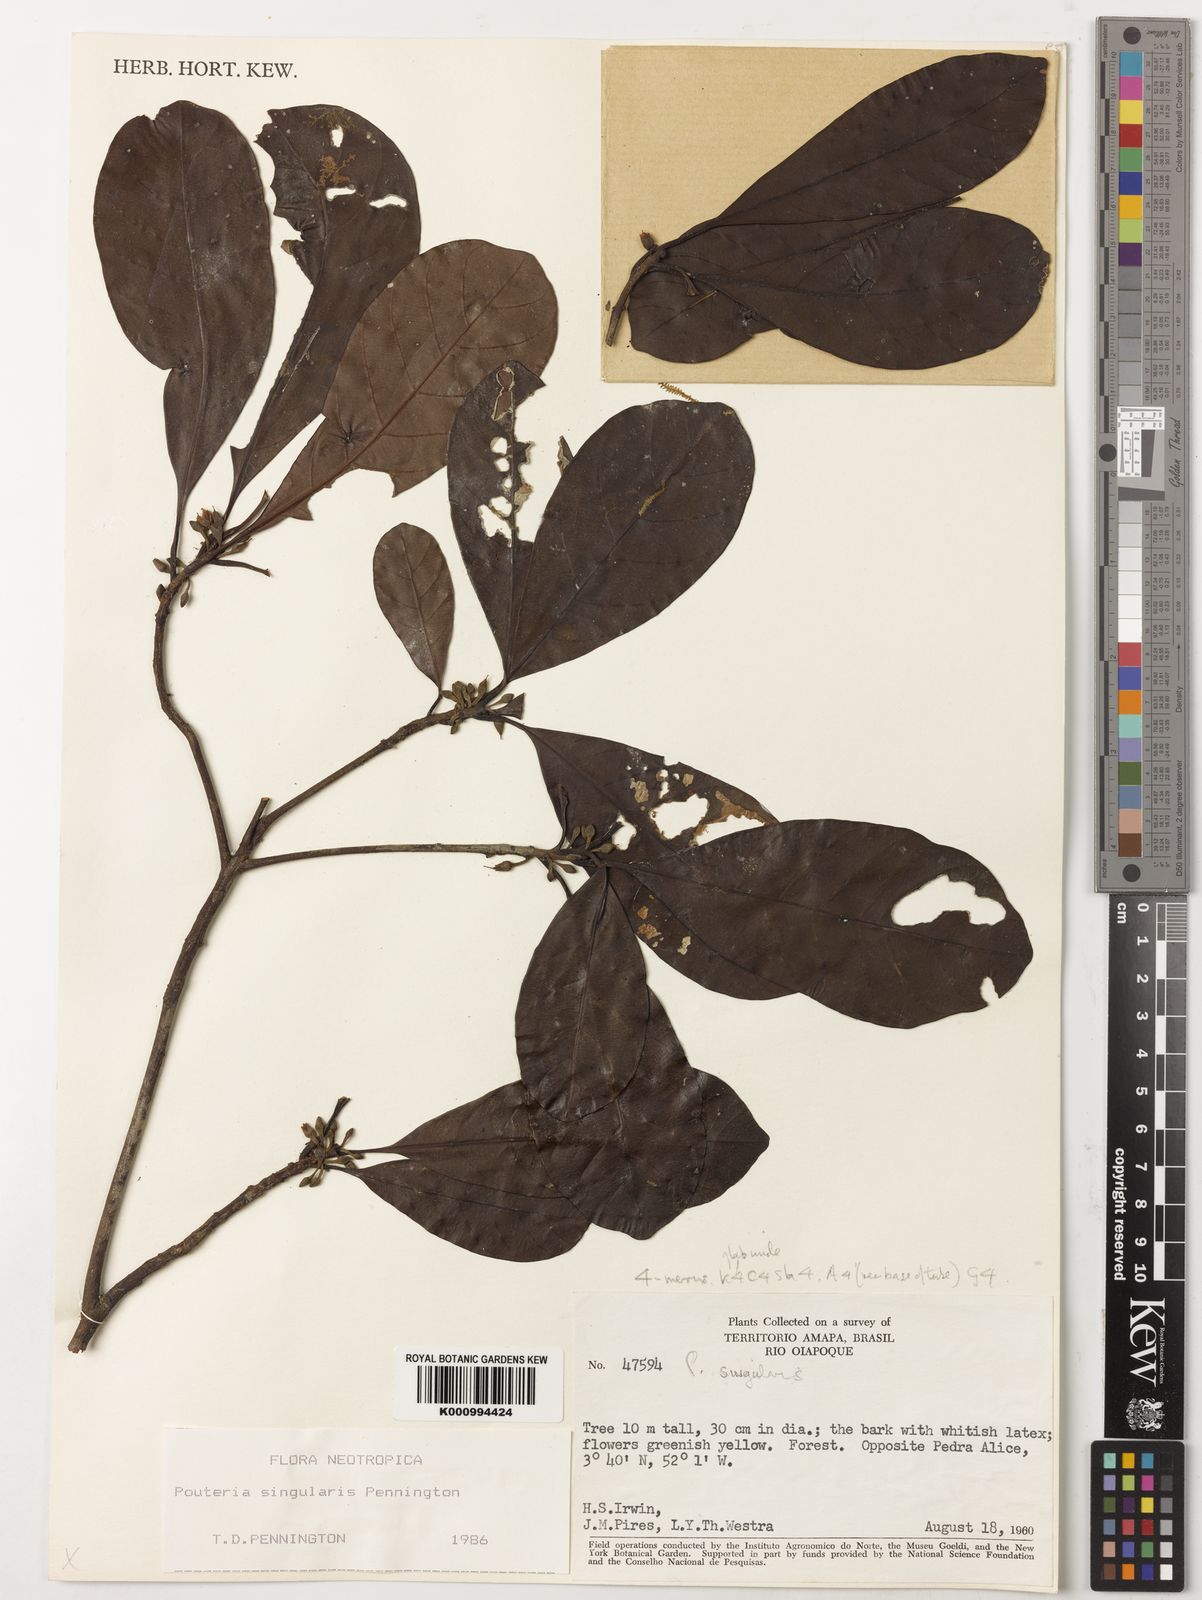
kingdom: Plantae
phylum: Tracheophyta
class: Magnoliopsida
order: Ericales
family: Sapotaceae
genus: Pouteria
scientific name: Pouteria singularis
